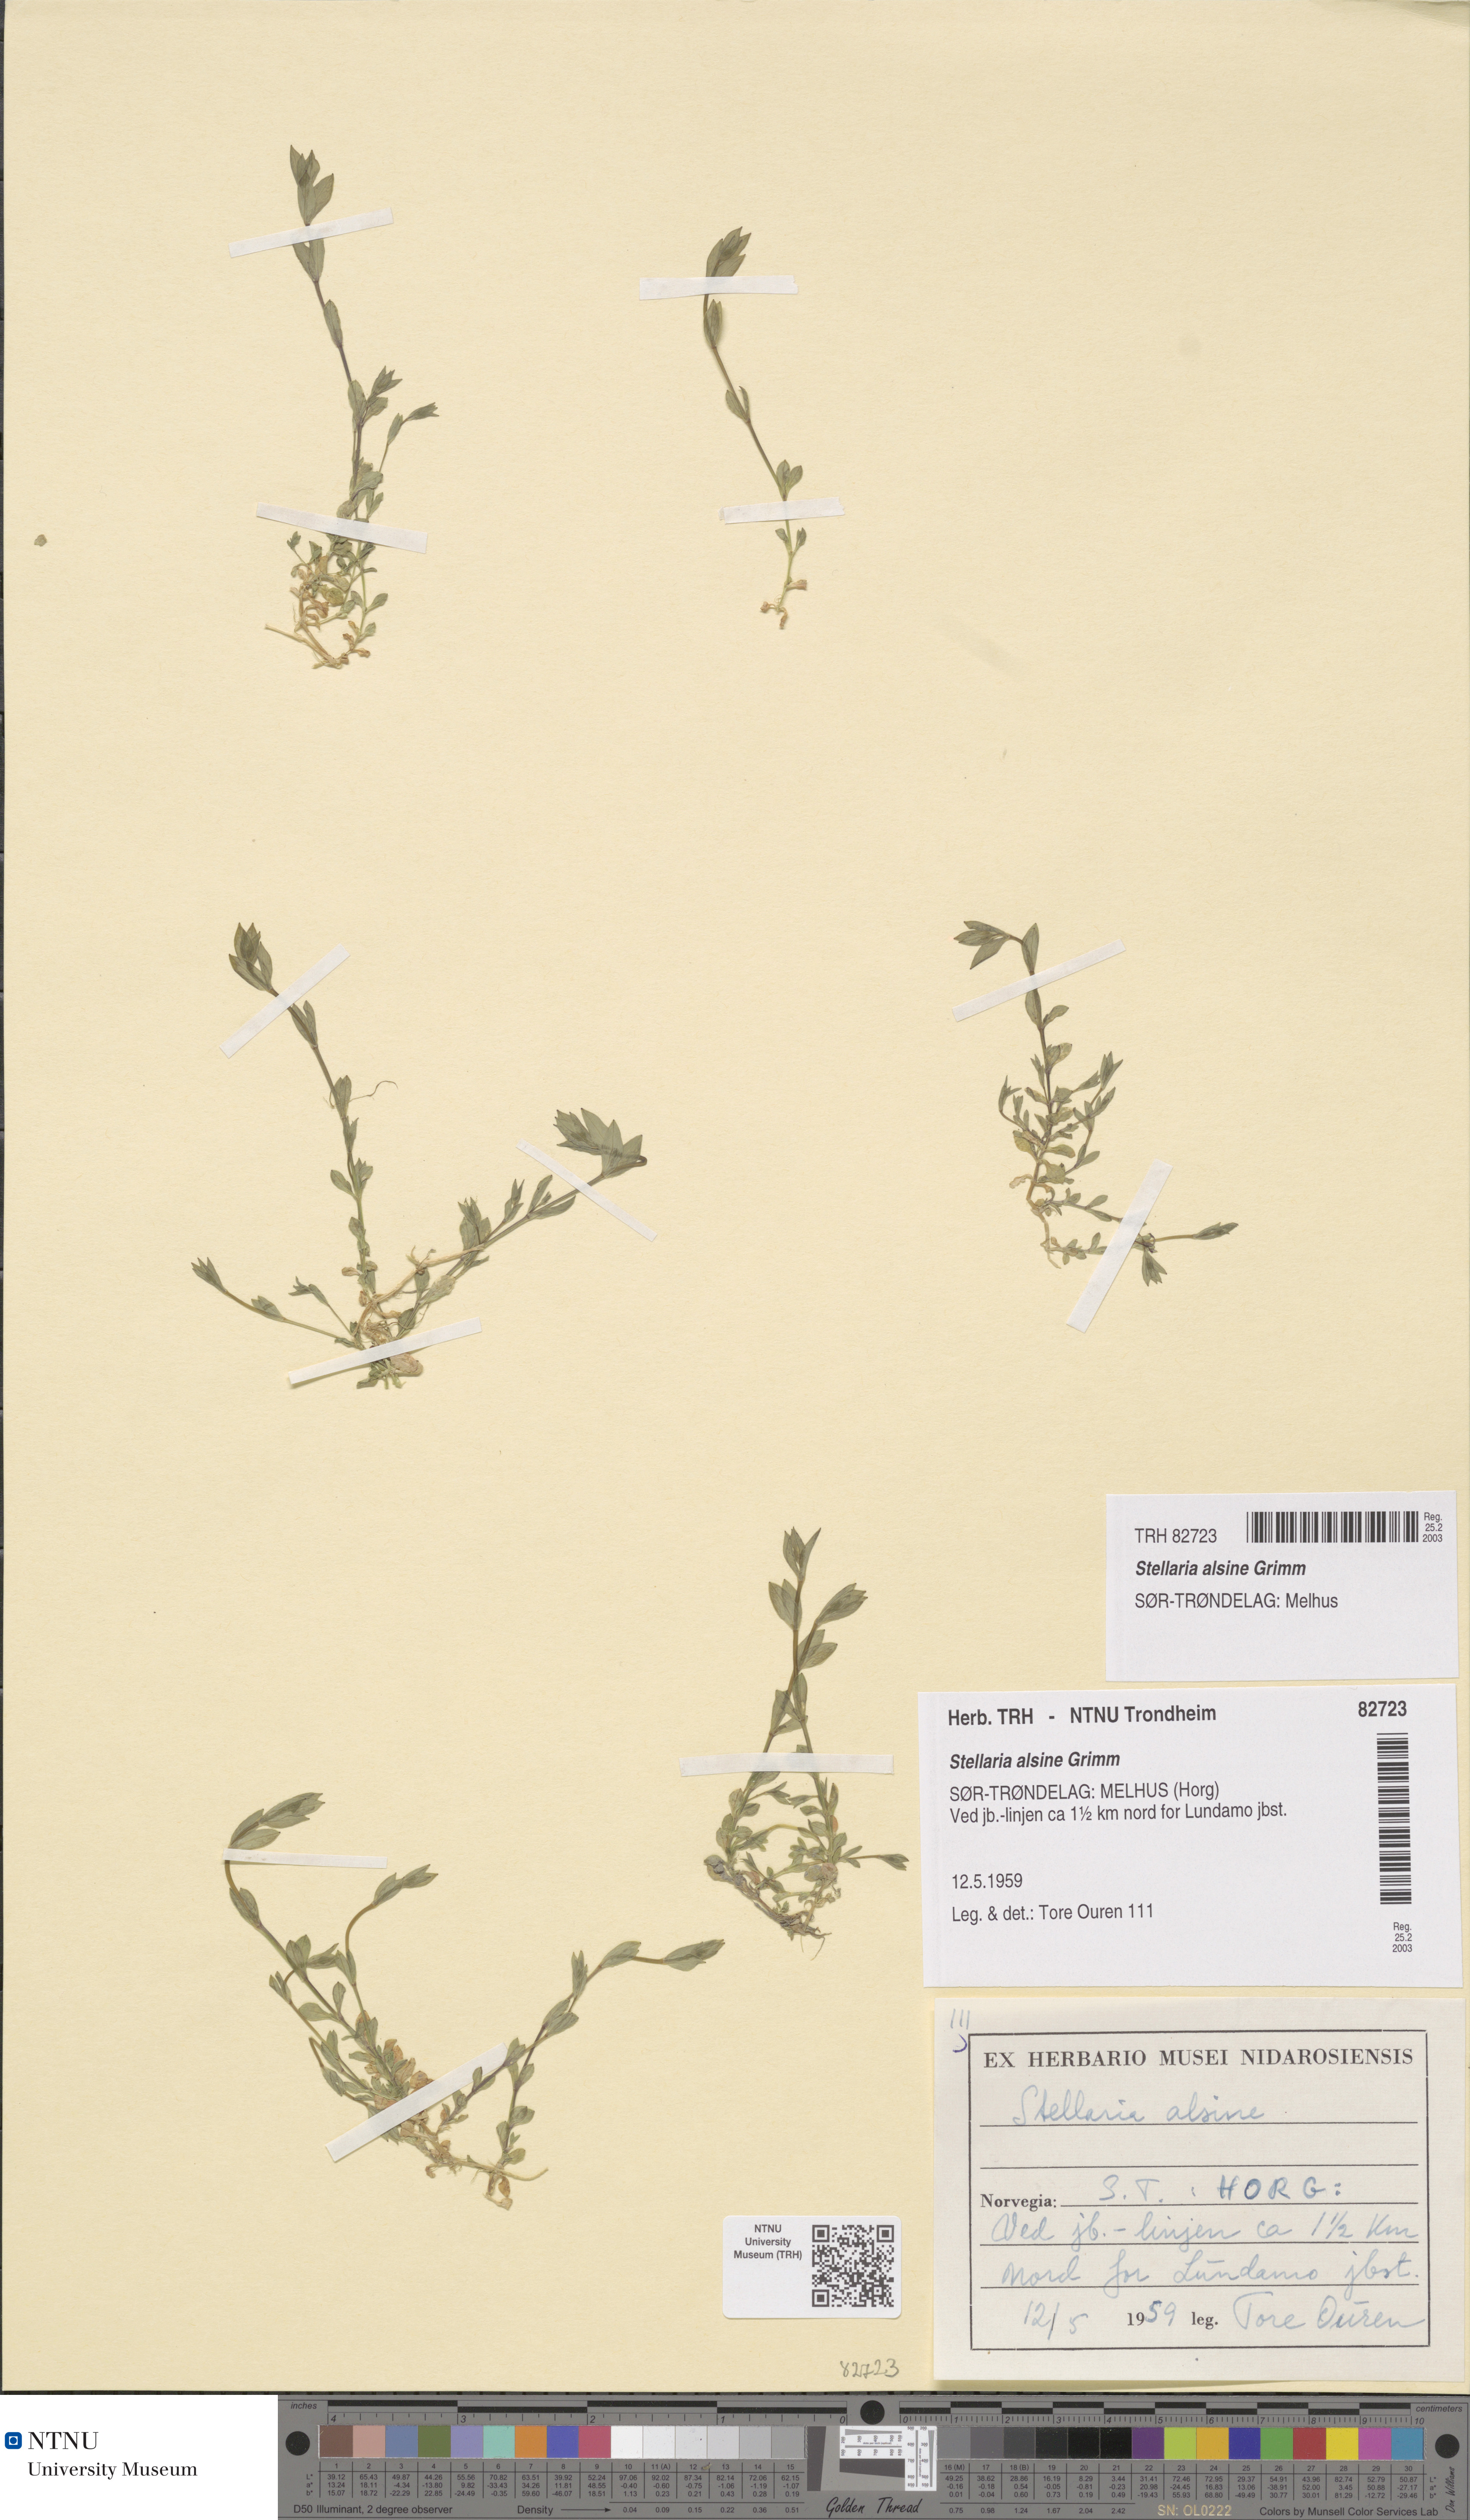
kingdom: Plantae
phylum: Tracheophyta
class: Magnoliopsida
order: Caryophyllales
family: Caryophyllaceae
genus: Stellaria
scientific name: Stellaria alsine
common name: Bog stitchwort
